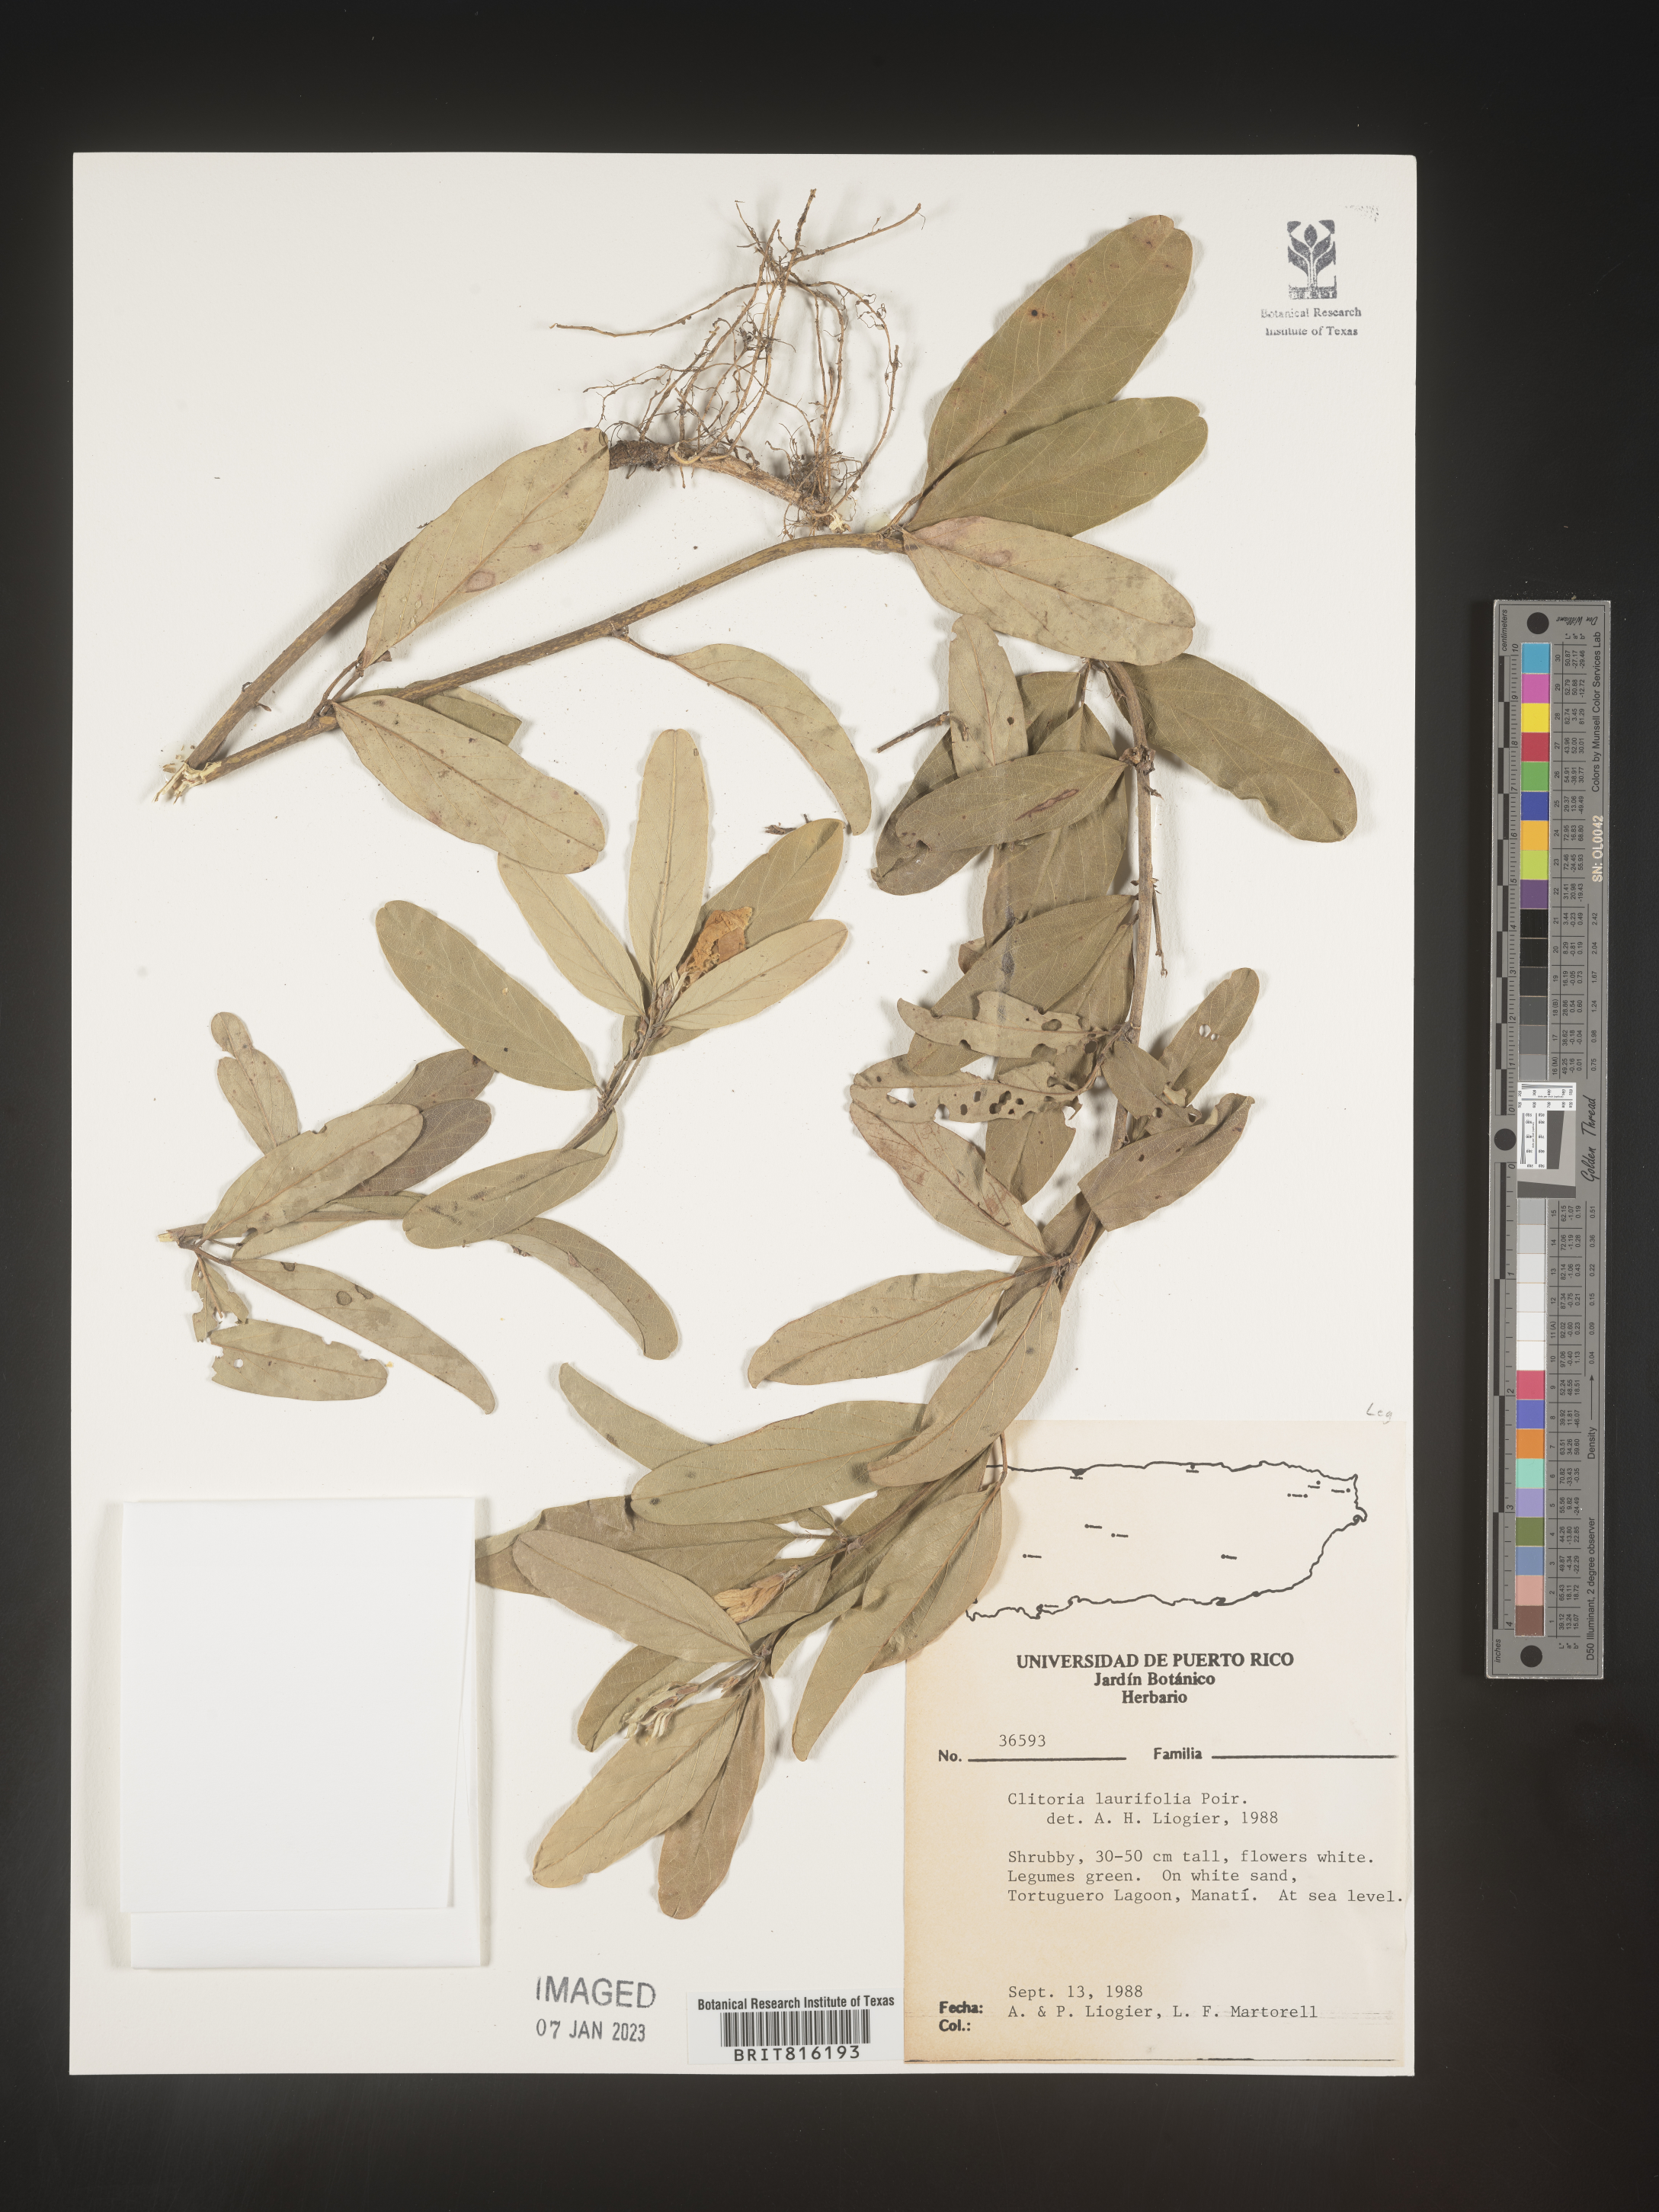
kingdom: Plantae
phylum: Tracheophyta
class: Magnoliopsida
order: Fabales
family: Fabaceae
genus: Clitoria
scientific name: Clitoria
